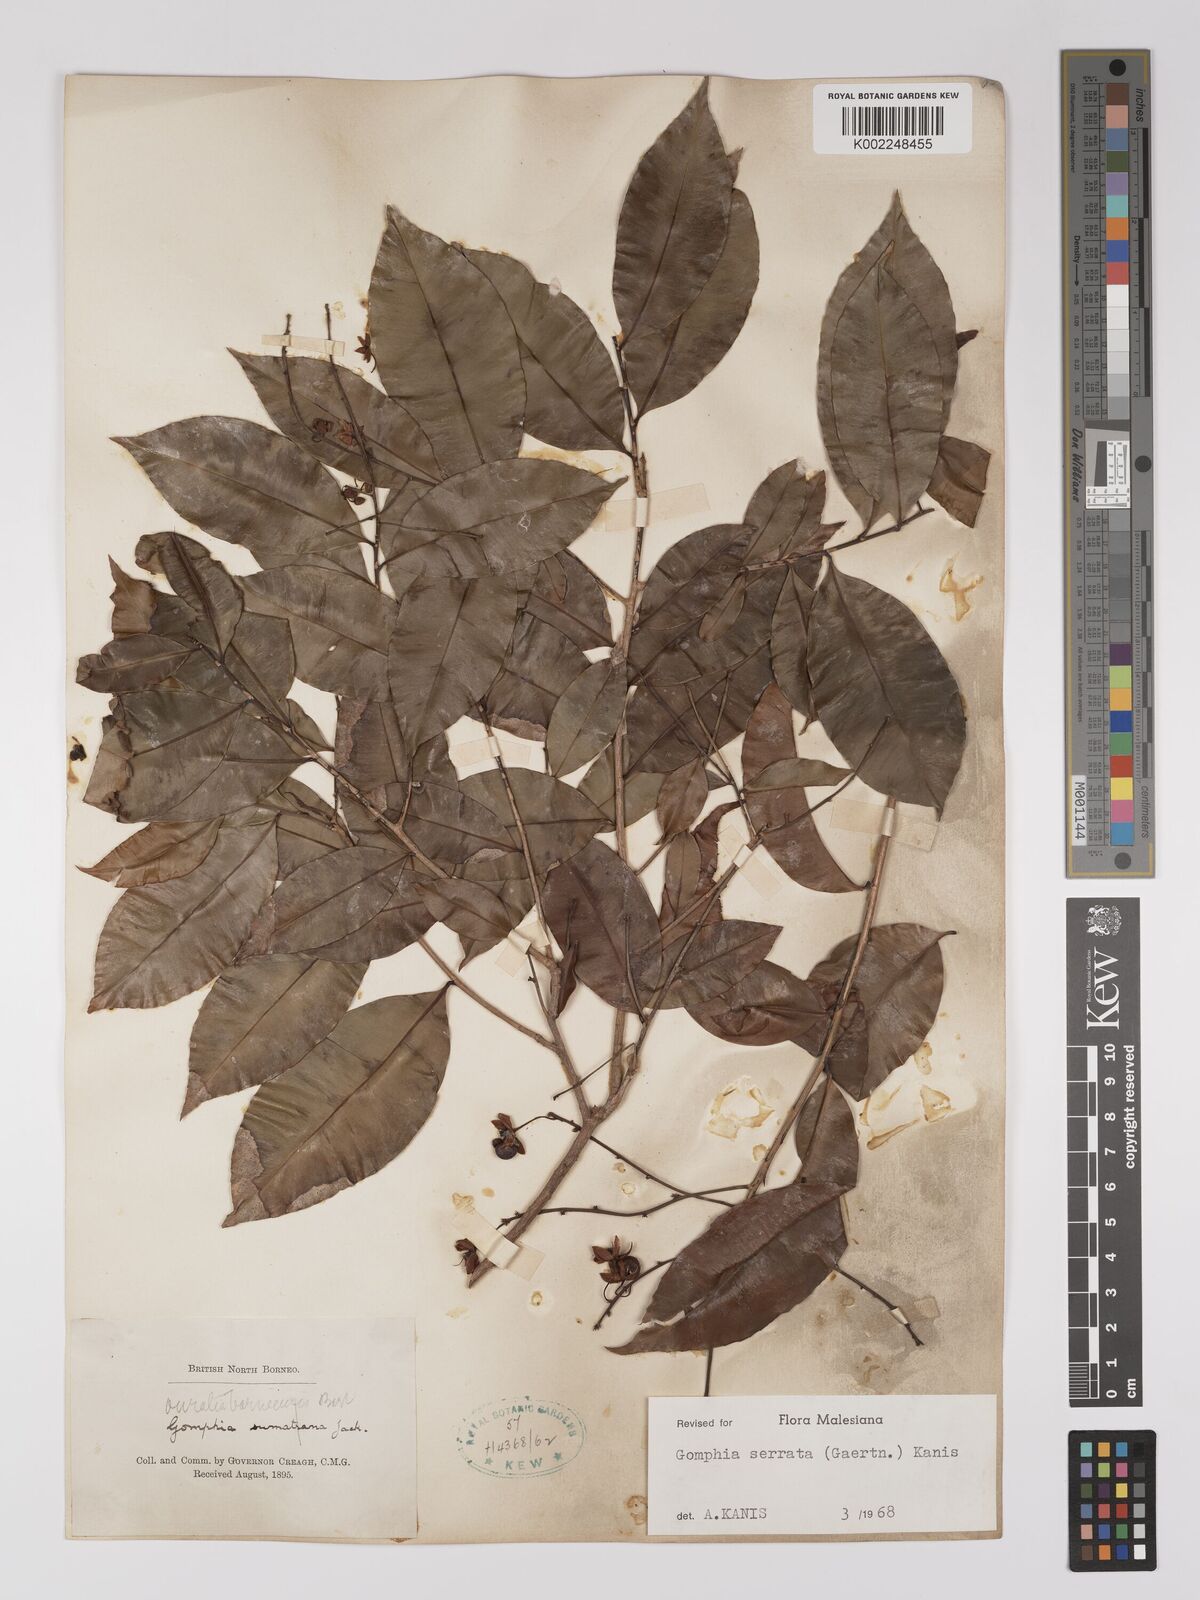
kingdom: Plantae
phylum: Tracheophyta
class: Magnoliopsida
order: Malpighiales
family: Ochnaceae
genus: Gomphia
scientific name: Gomphia serrata
